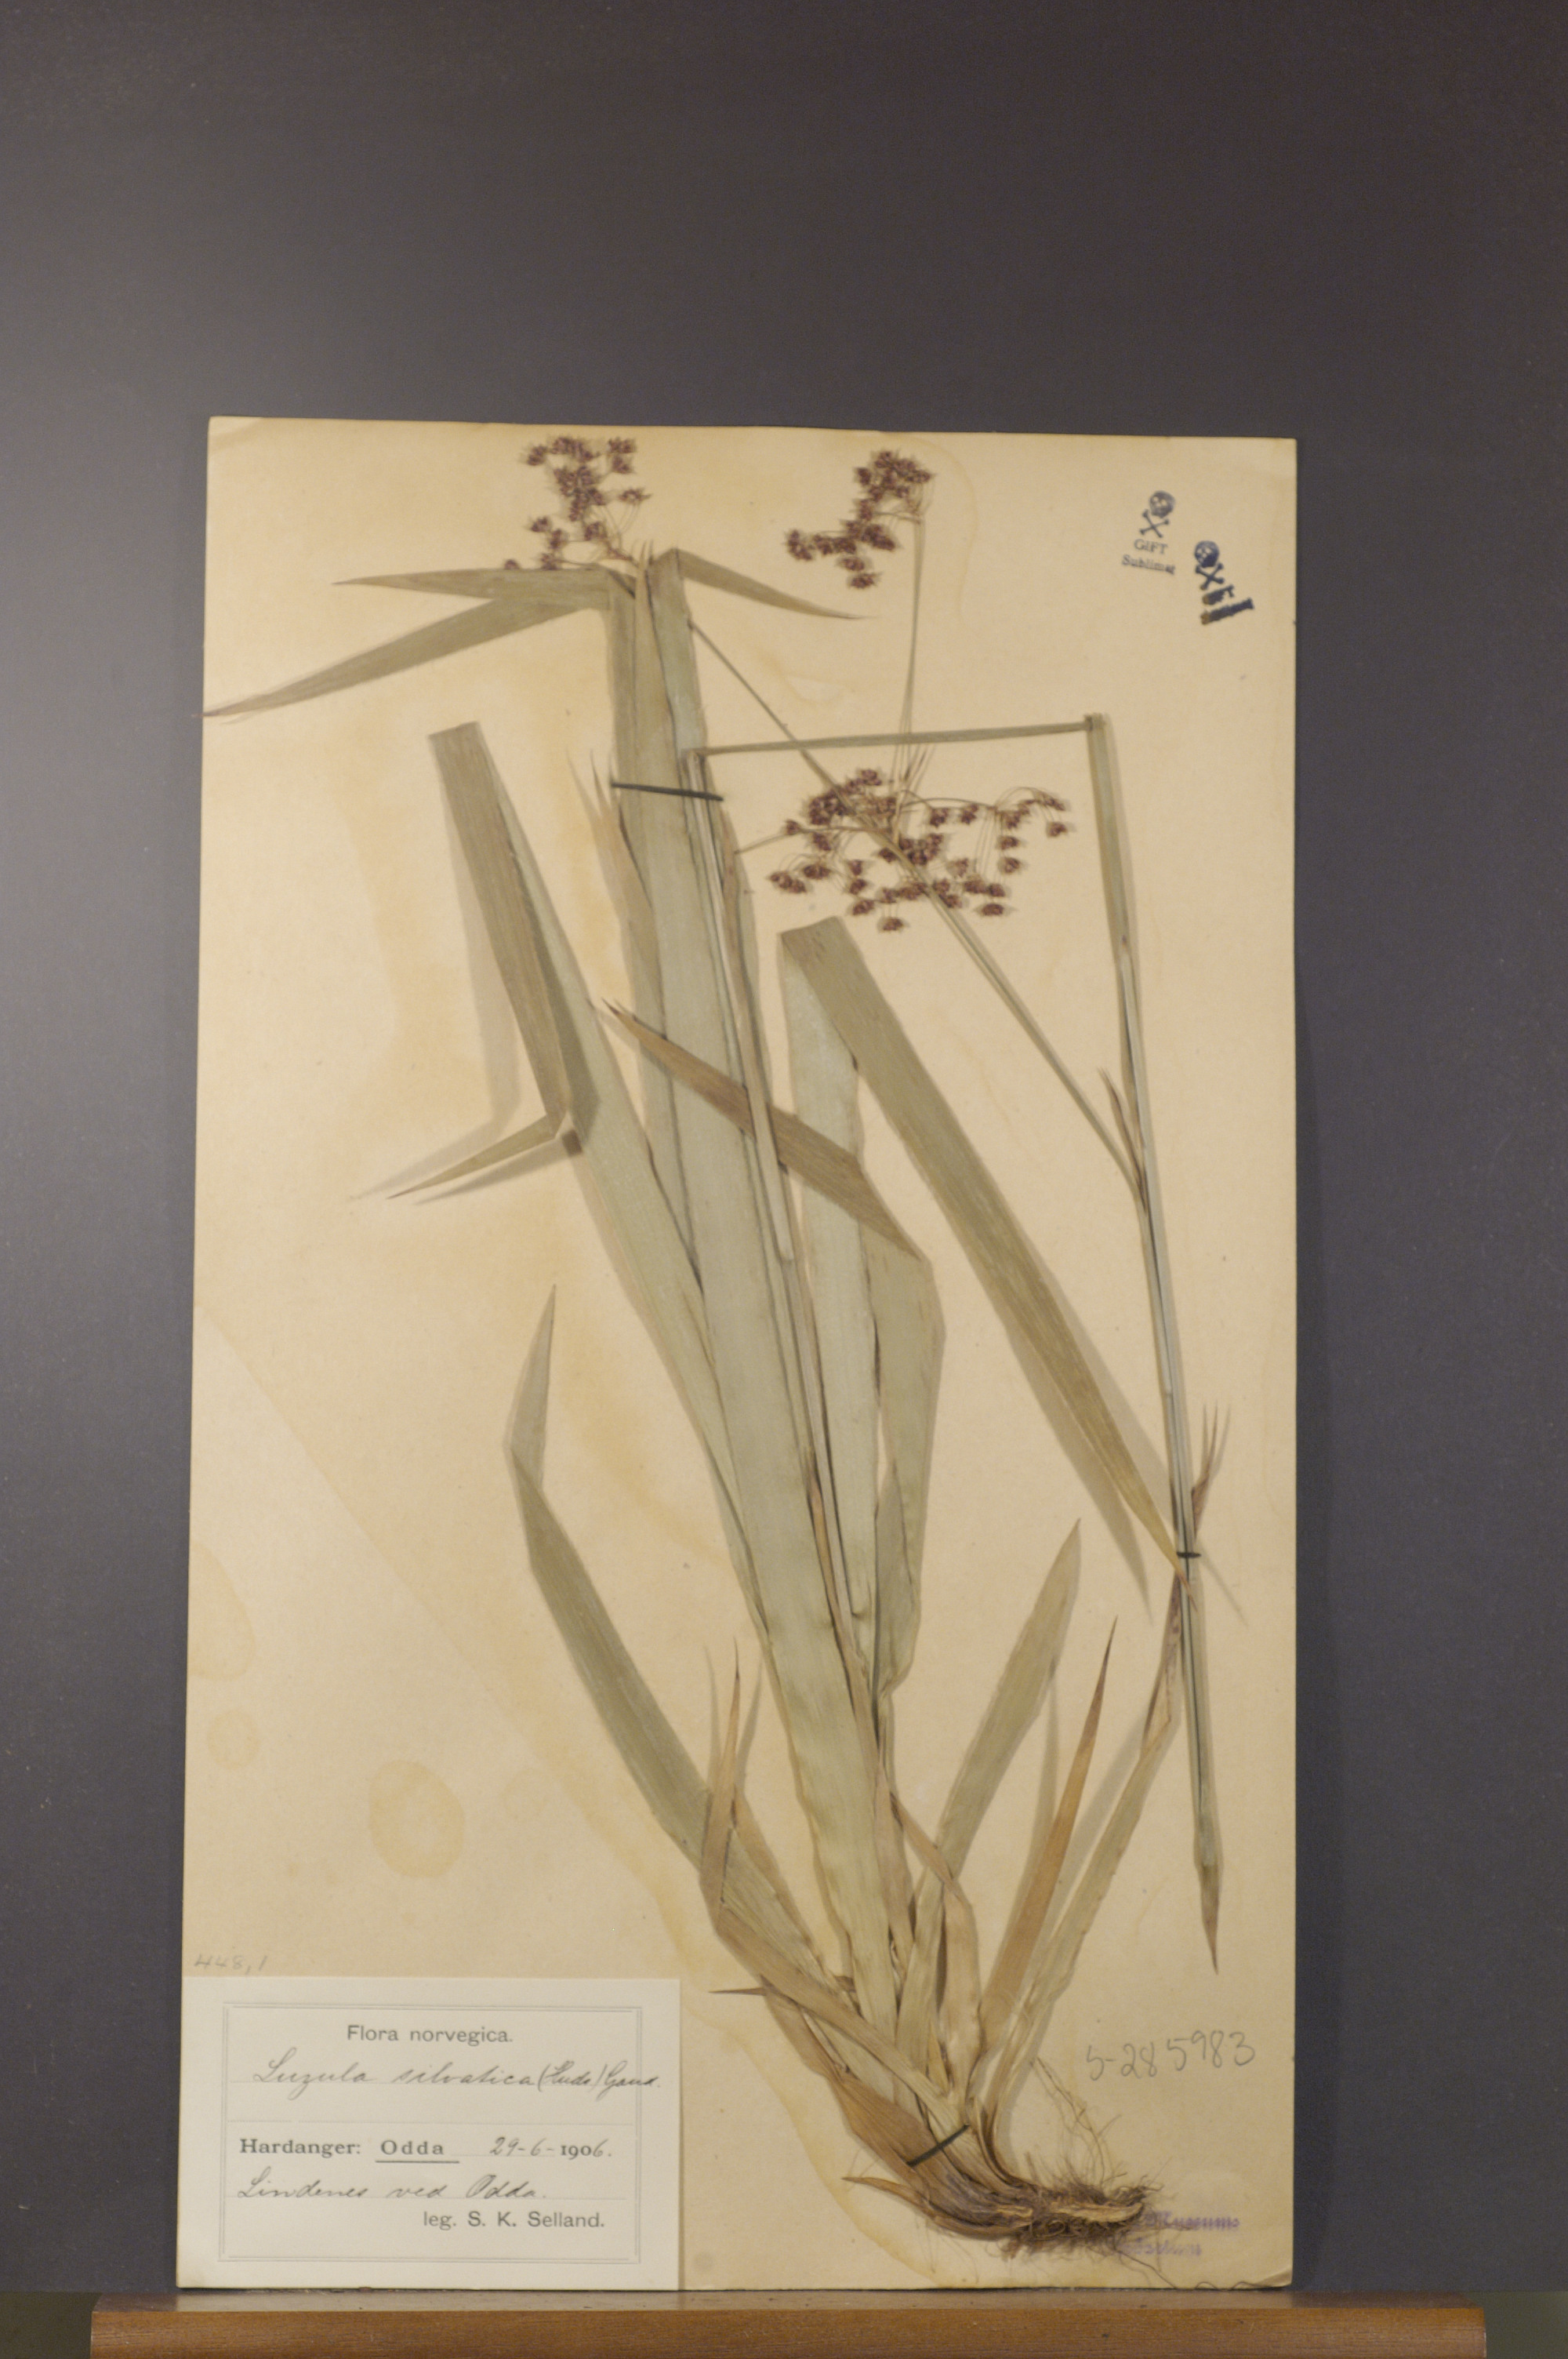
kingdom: Plantae
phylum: Tracheophyta
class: Liliopsida
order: Poales
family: Juncaceae
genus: Luzula
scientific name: Luzula sylvatica
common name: Great wood-rush
